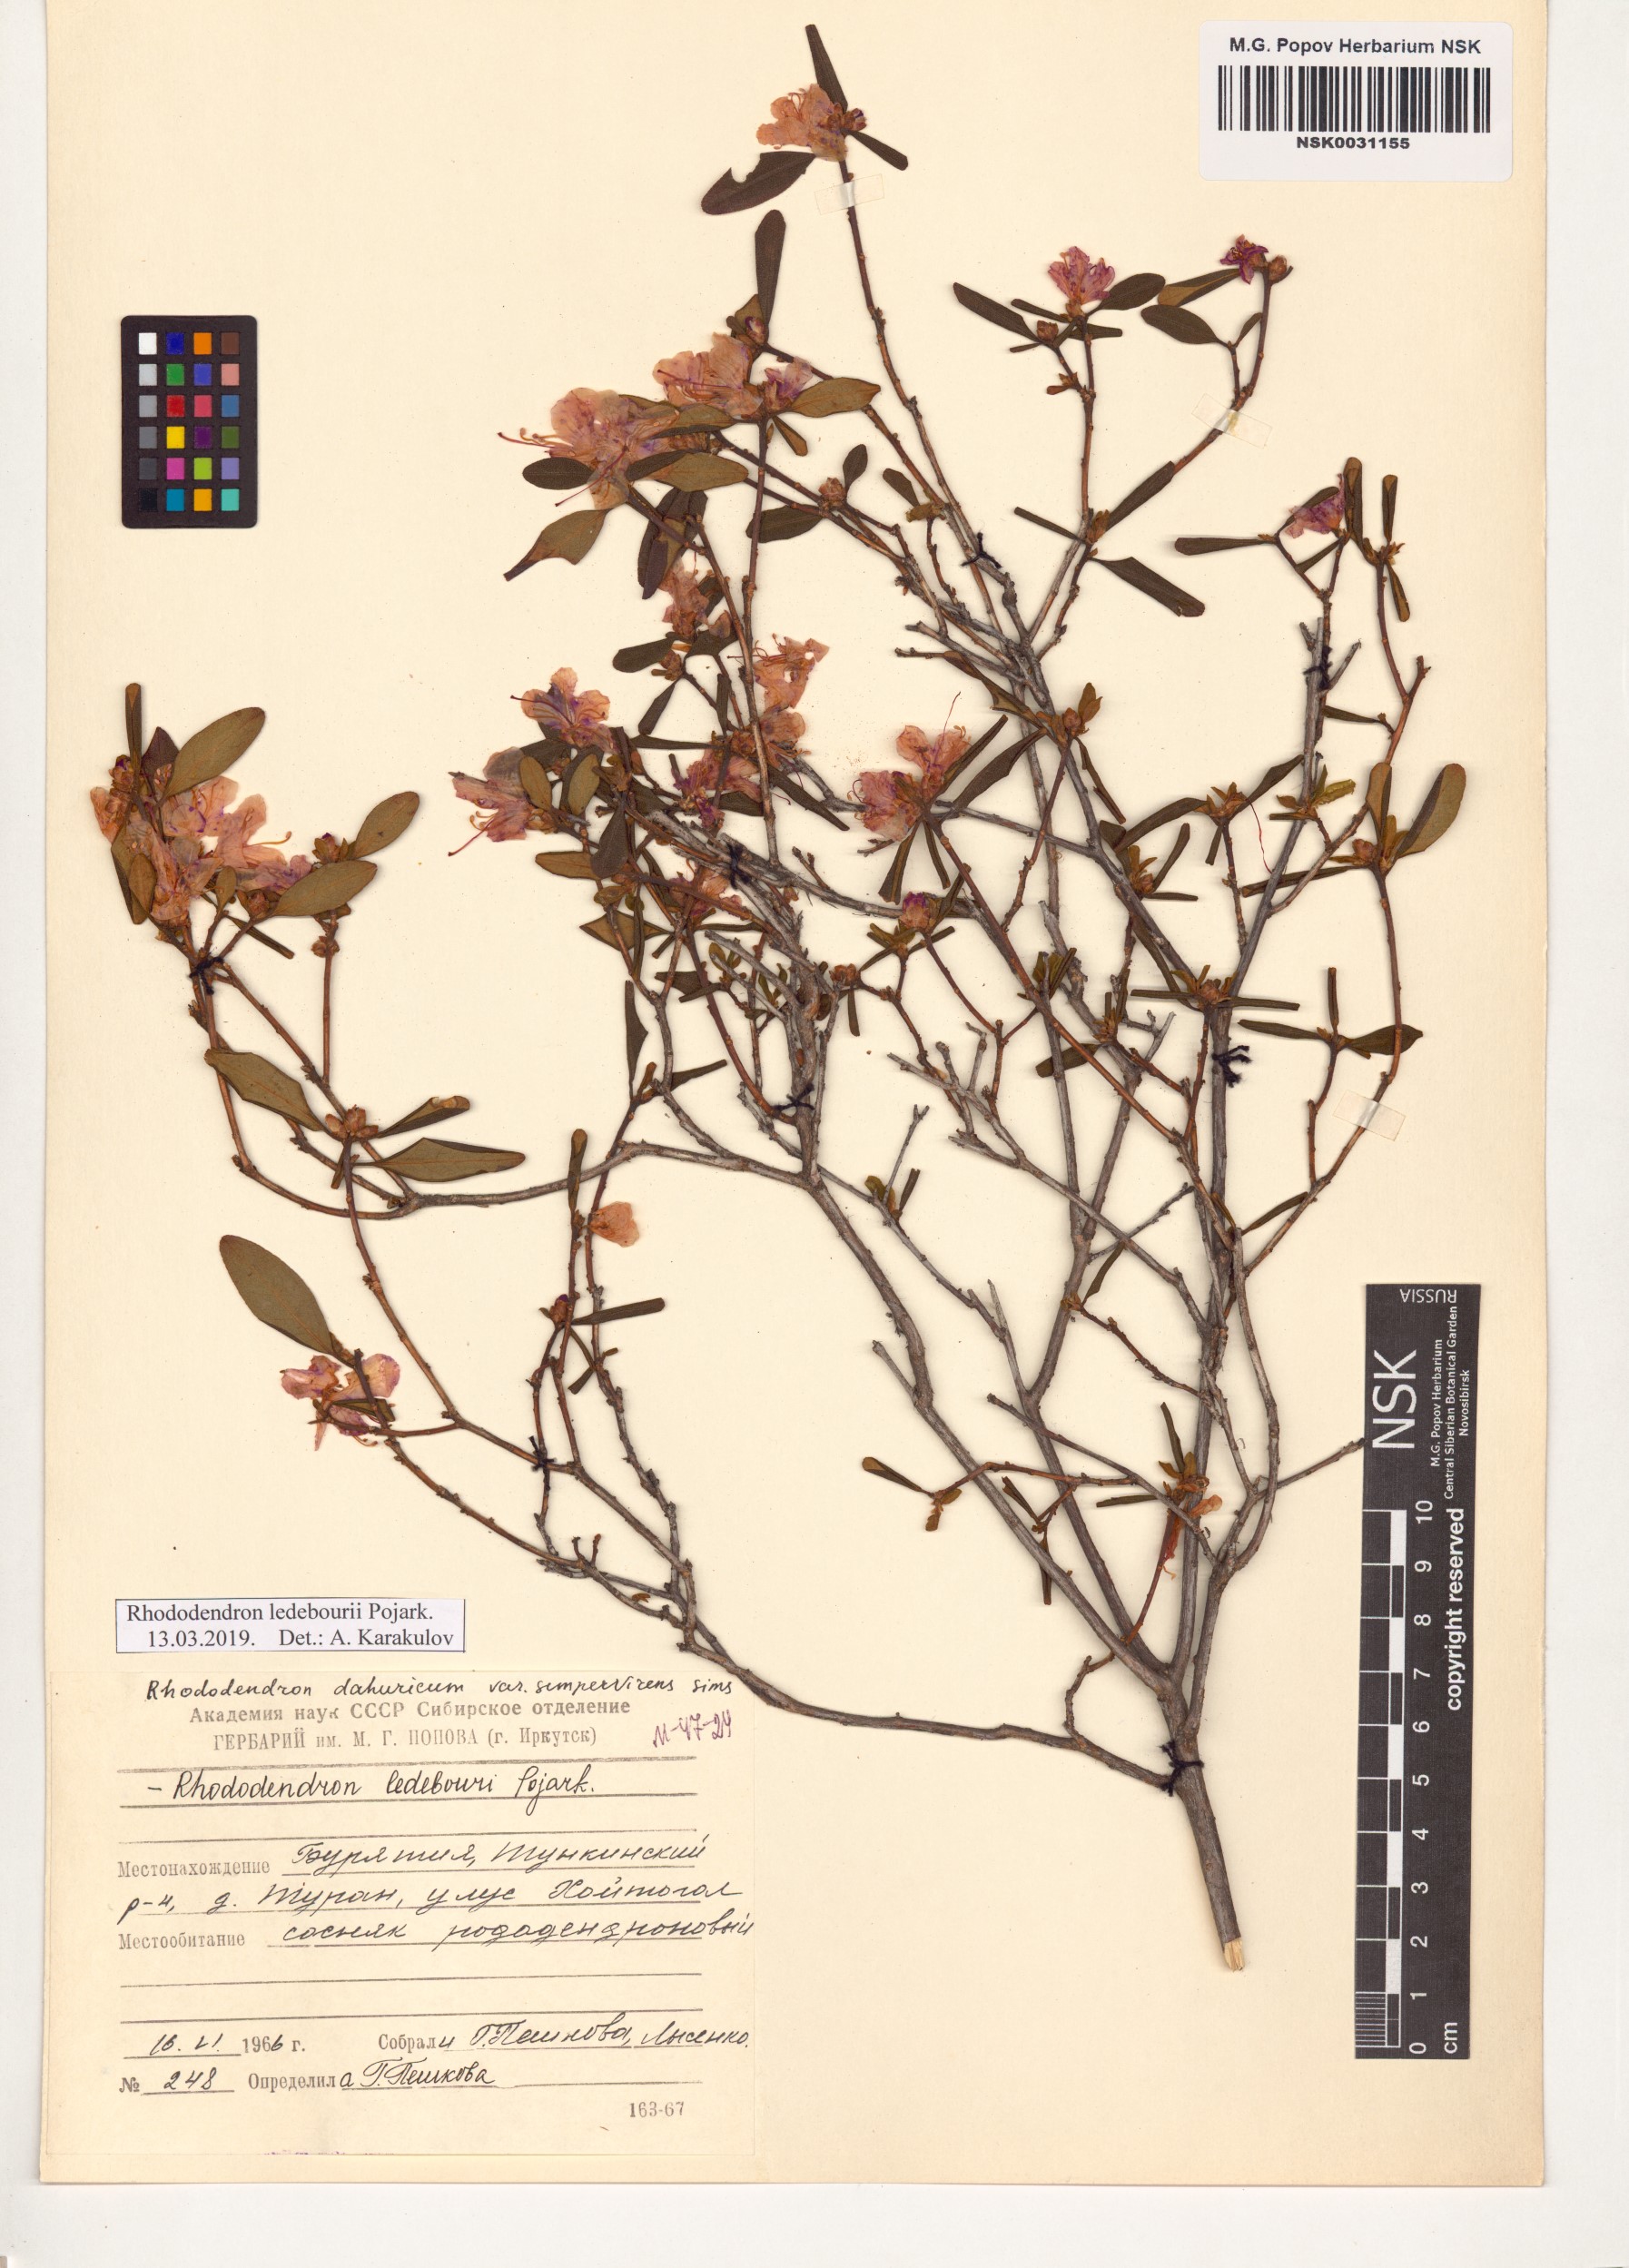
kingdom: Plantae
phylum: Tracheophyta
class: Magnoliopsida
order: Ericales
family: Ericaceae
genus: Rhododendron
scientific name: Rhododendron dauricum
